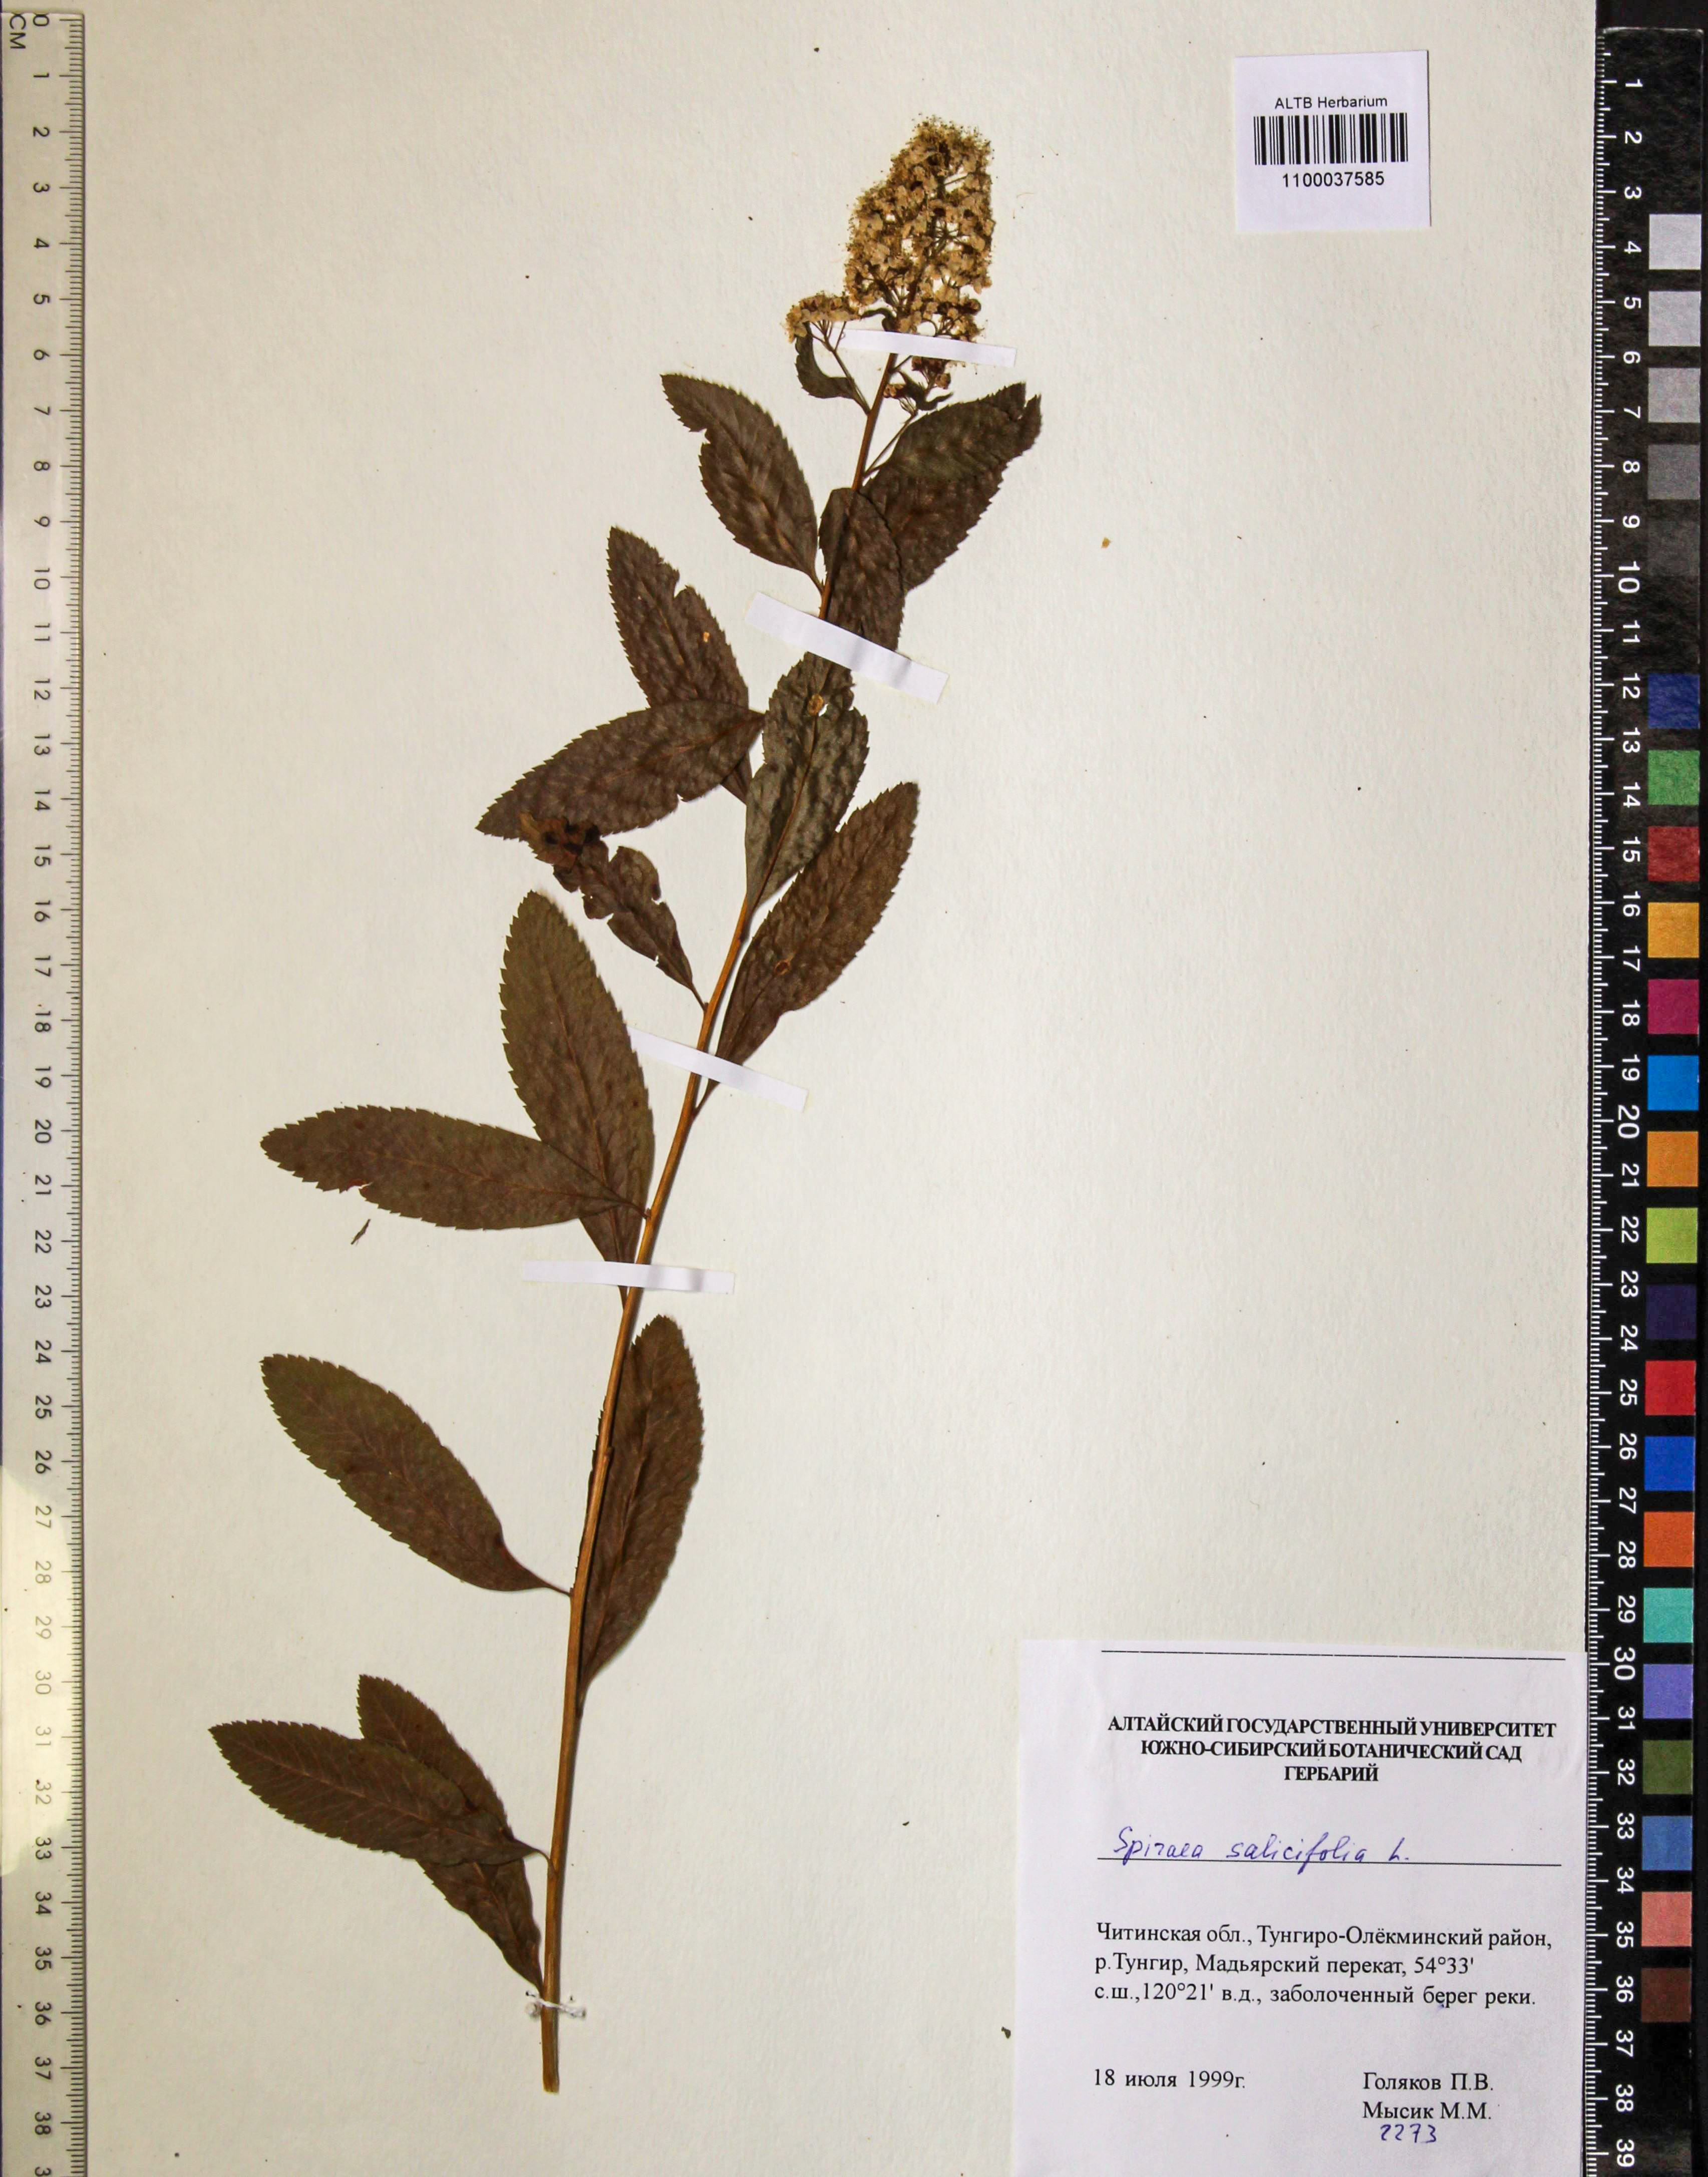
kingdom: Plantae
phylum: Tracheophyta
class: Magnoliopsida
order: Rosales
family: Rosaceae
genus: Spiraea
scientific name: Spiraea dahurica
